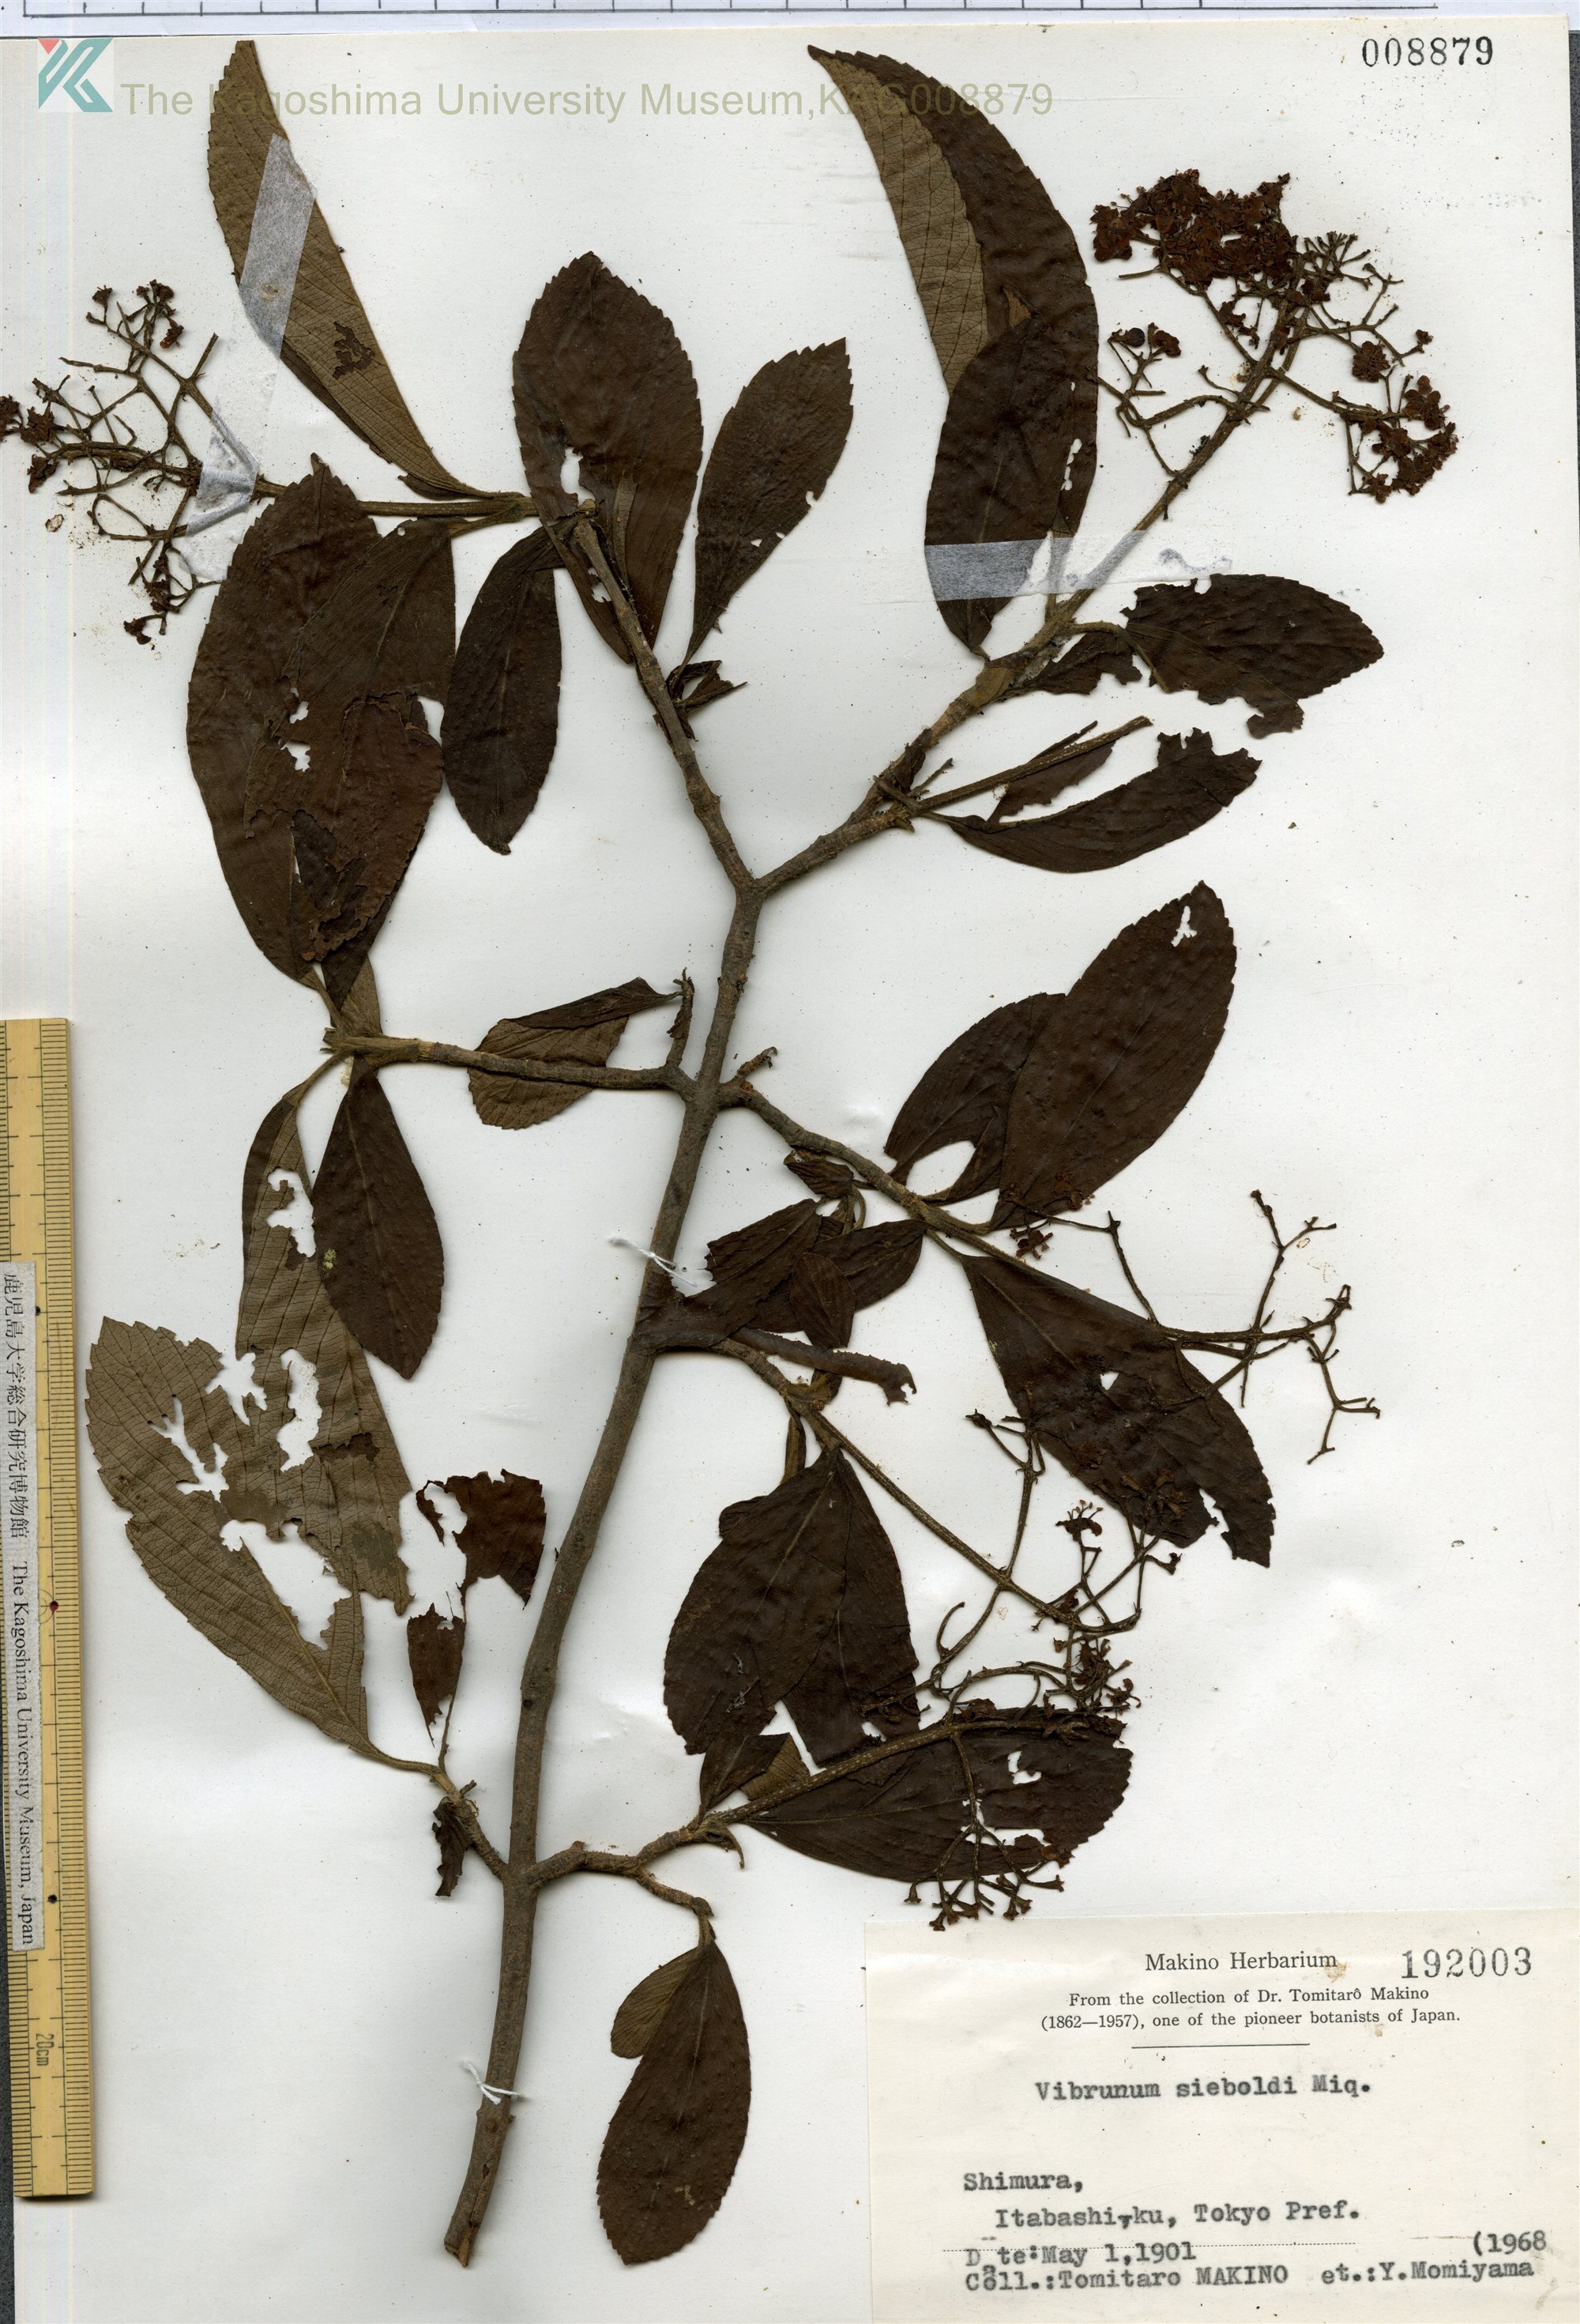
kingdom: Plantae
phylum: Tracheophyta
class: Magnoliopsida
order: Dipsacales
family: Viburnaceae
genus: Viburnum
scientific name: Viburnum sieboldii
